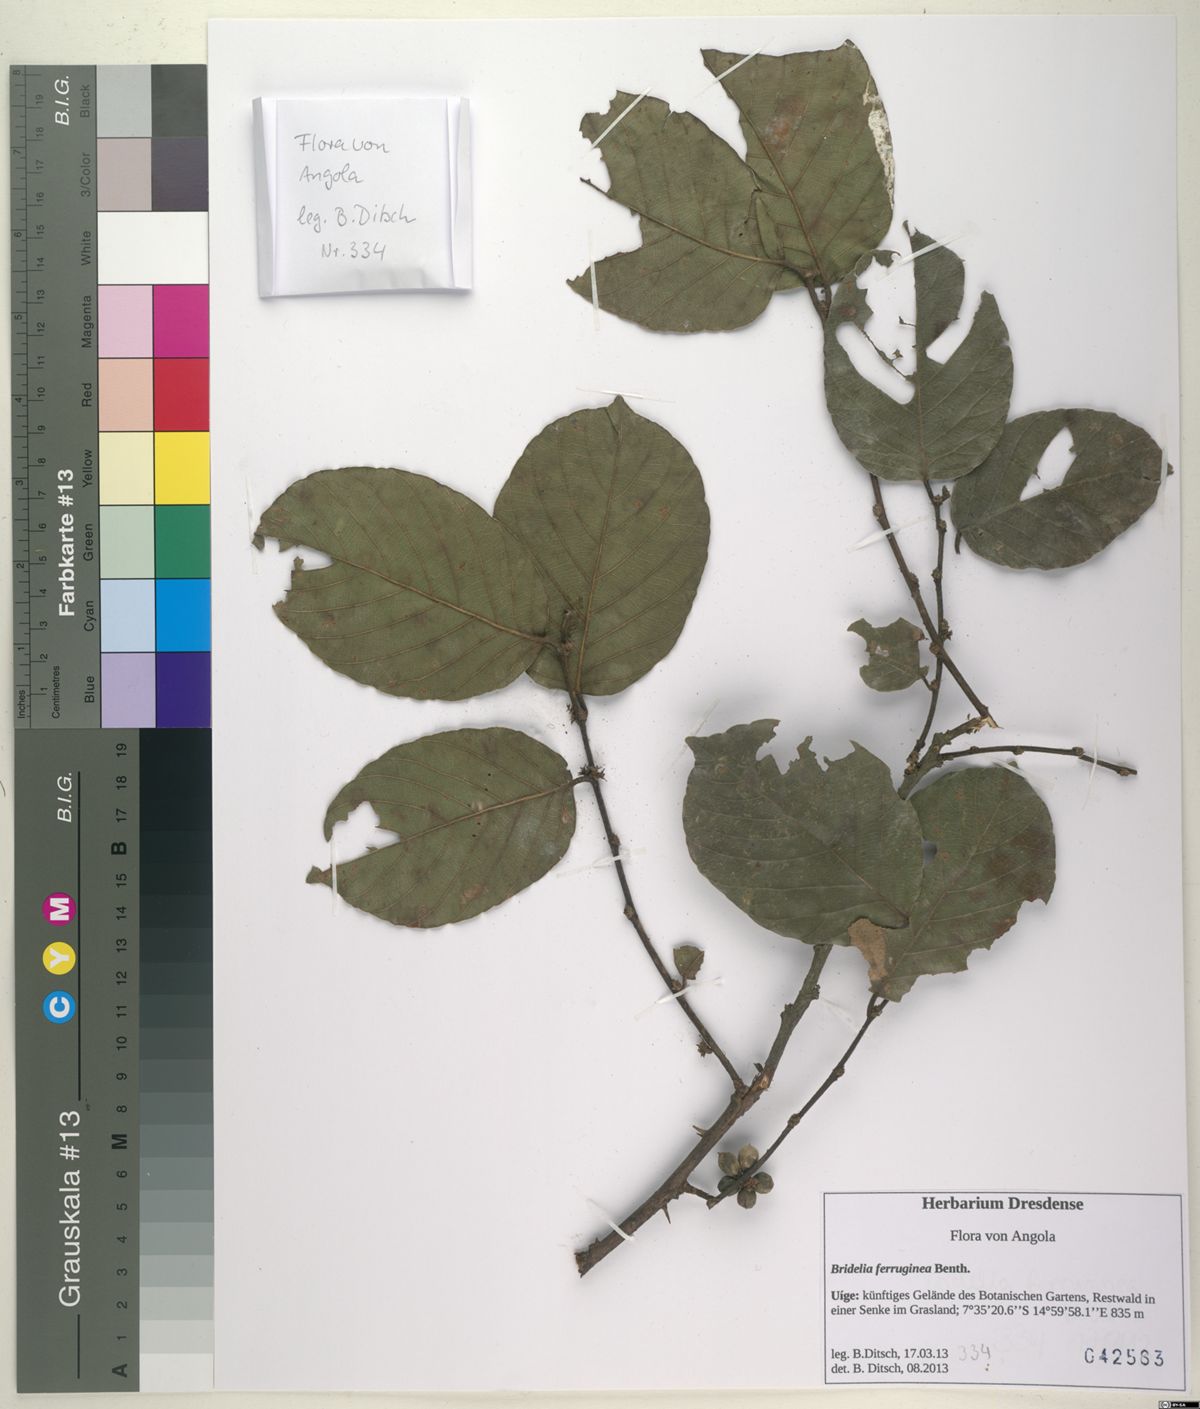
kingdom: Plantae
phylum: Tracheophyta
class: Magnoliopsida
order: Malpighiales
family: Phyllanthaceae
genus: Bridelia
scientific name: Bridelia ferruginea
